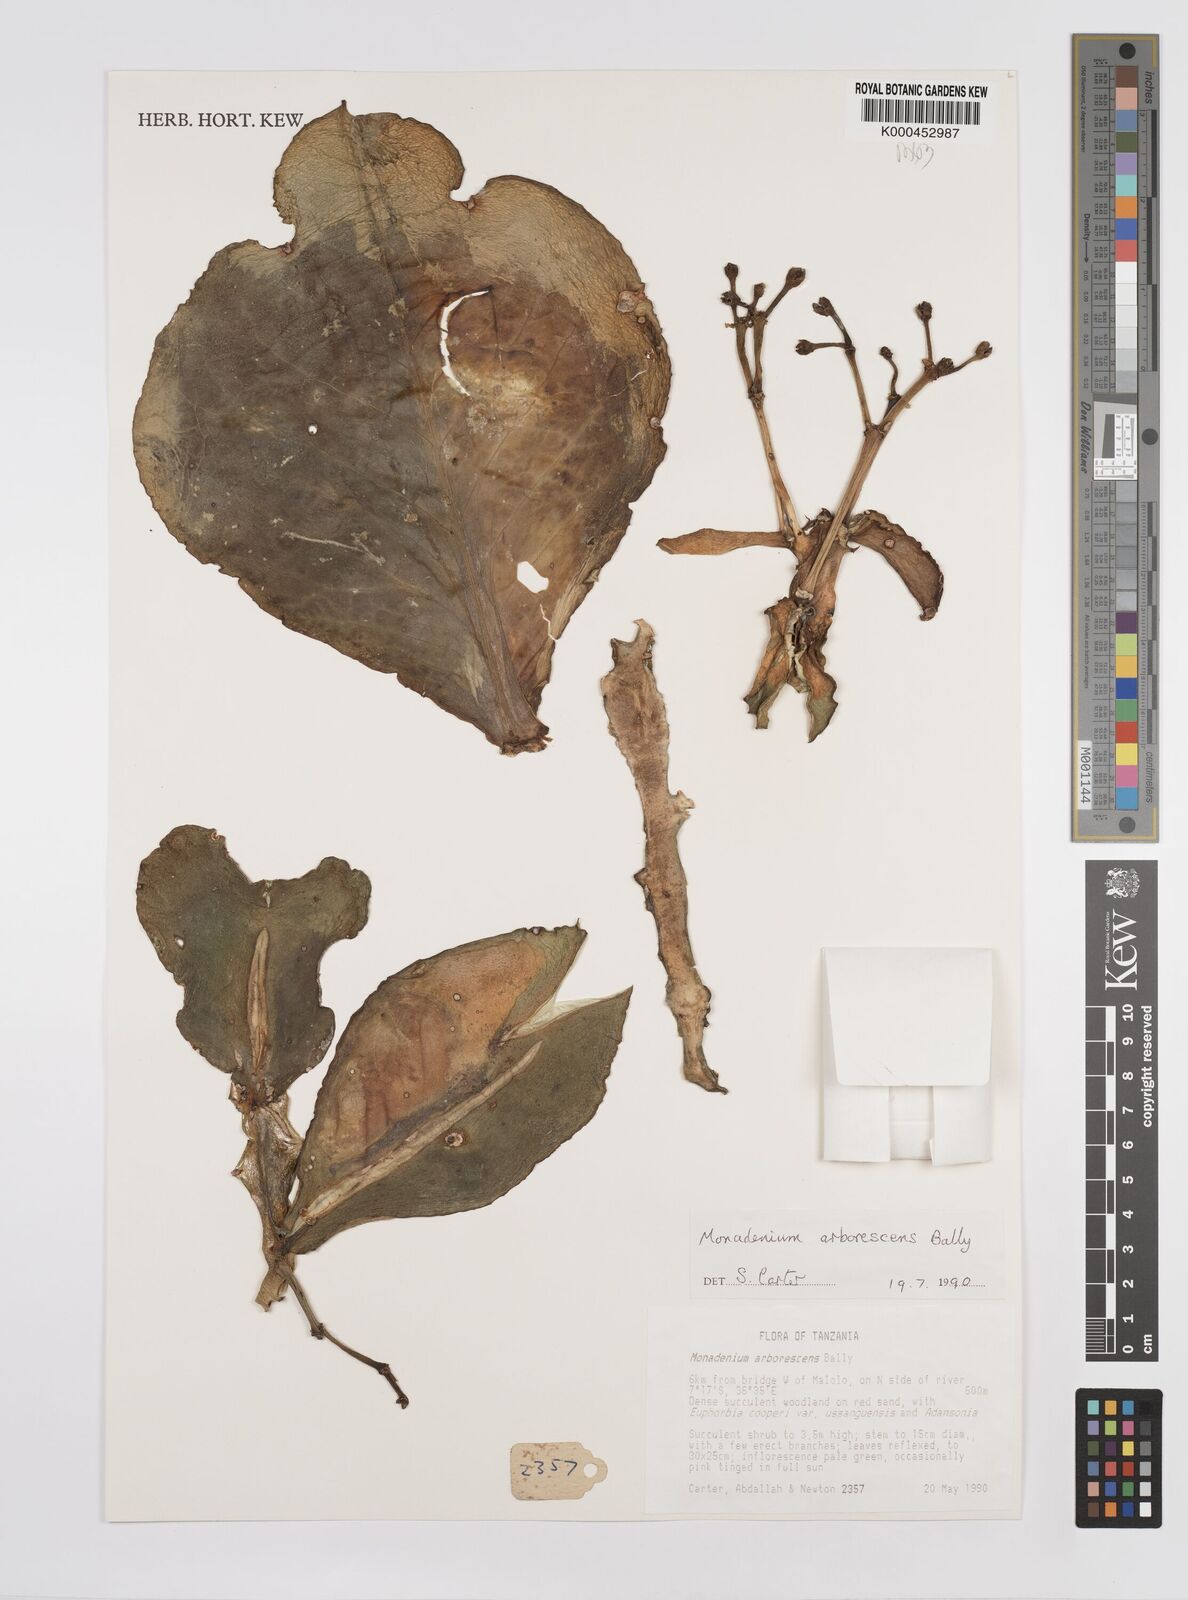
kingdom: Plantae
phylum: Tracheophyta
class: Magnoliopsida
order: Malpighiales
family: Euphorbiaceae
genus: Euphorbia
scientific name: Euphorbia neoarborescens
